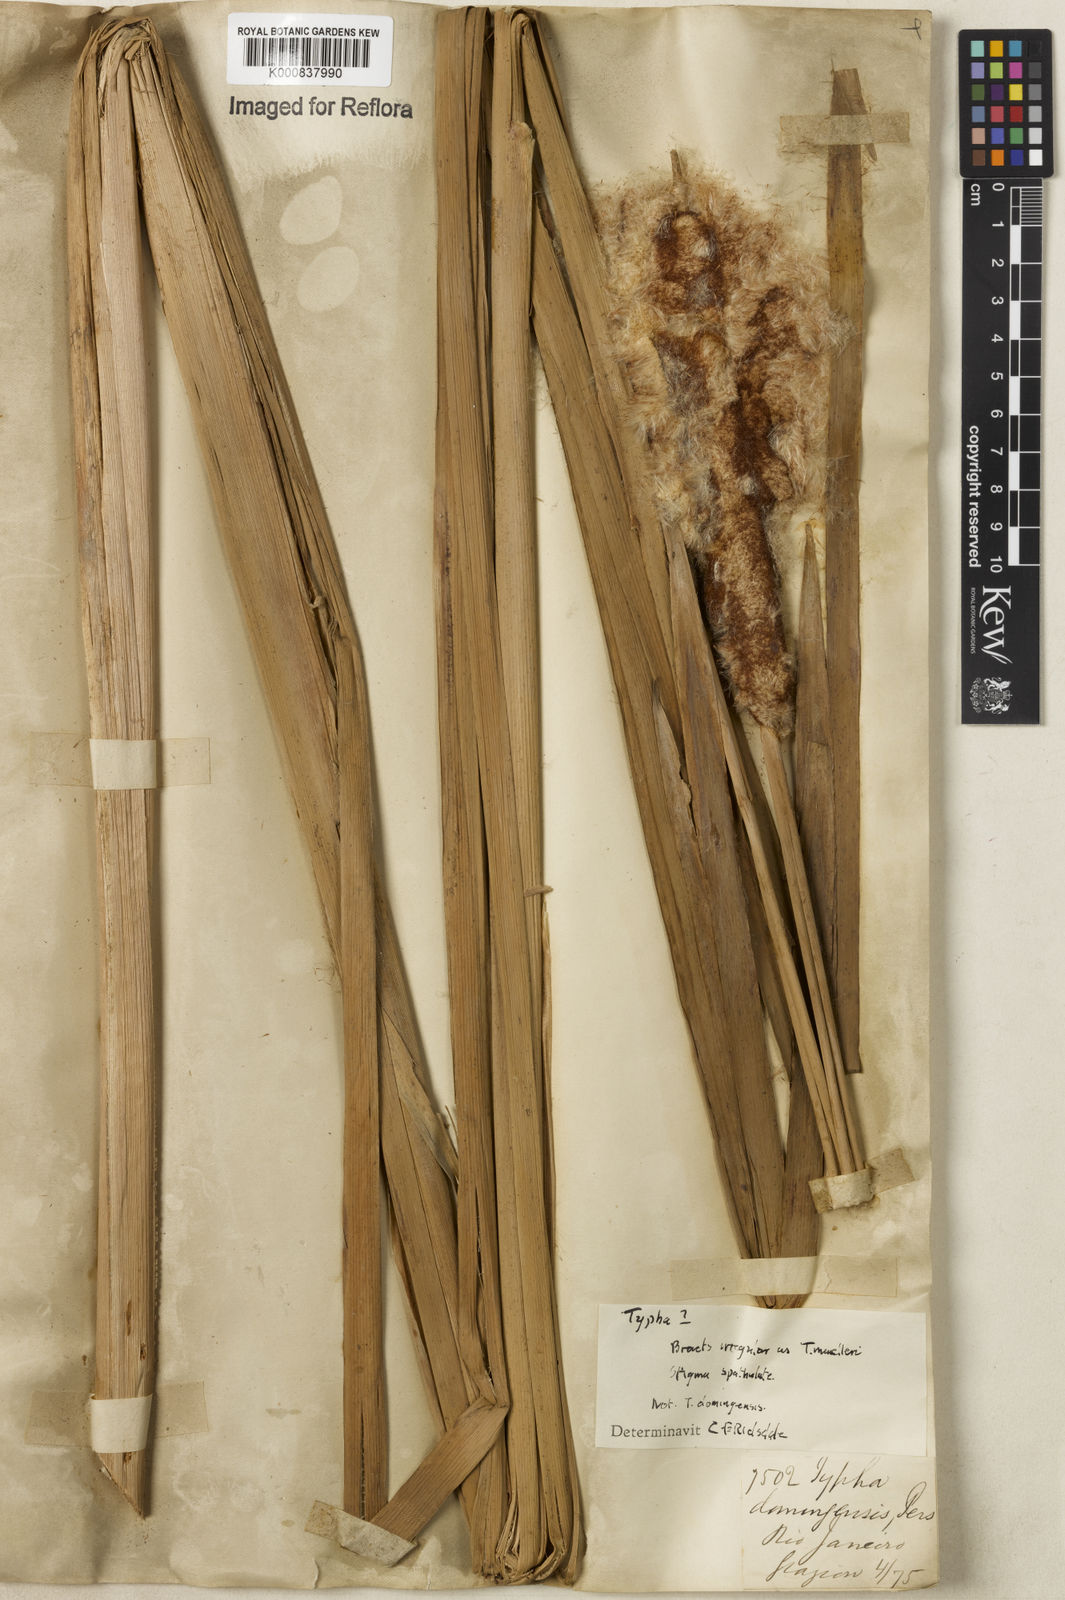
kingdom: Plantae
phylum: Tracheophyta
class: Liliopsida
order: Poales
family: Typhaceae
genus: Typha
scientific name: Typha
